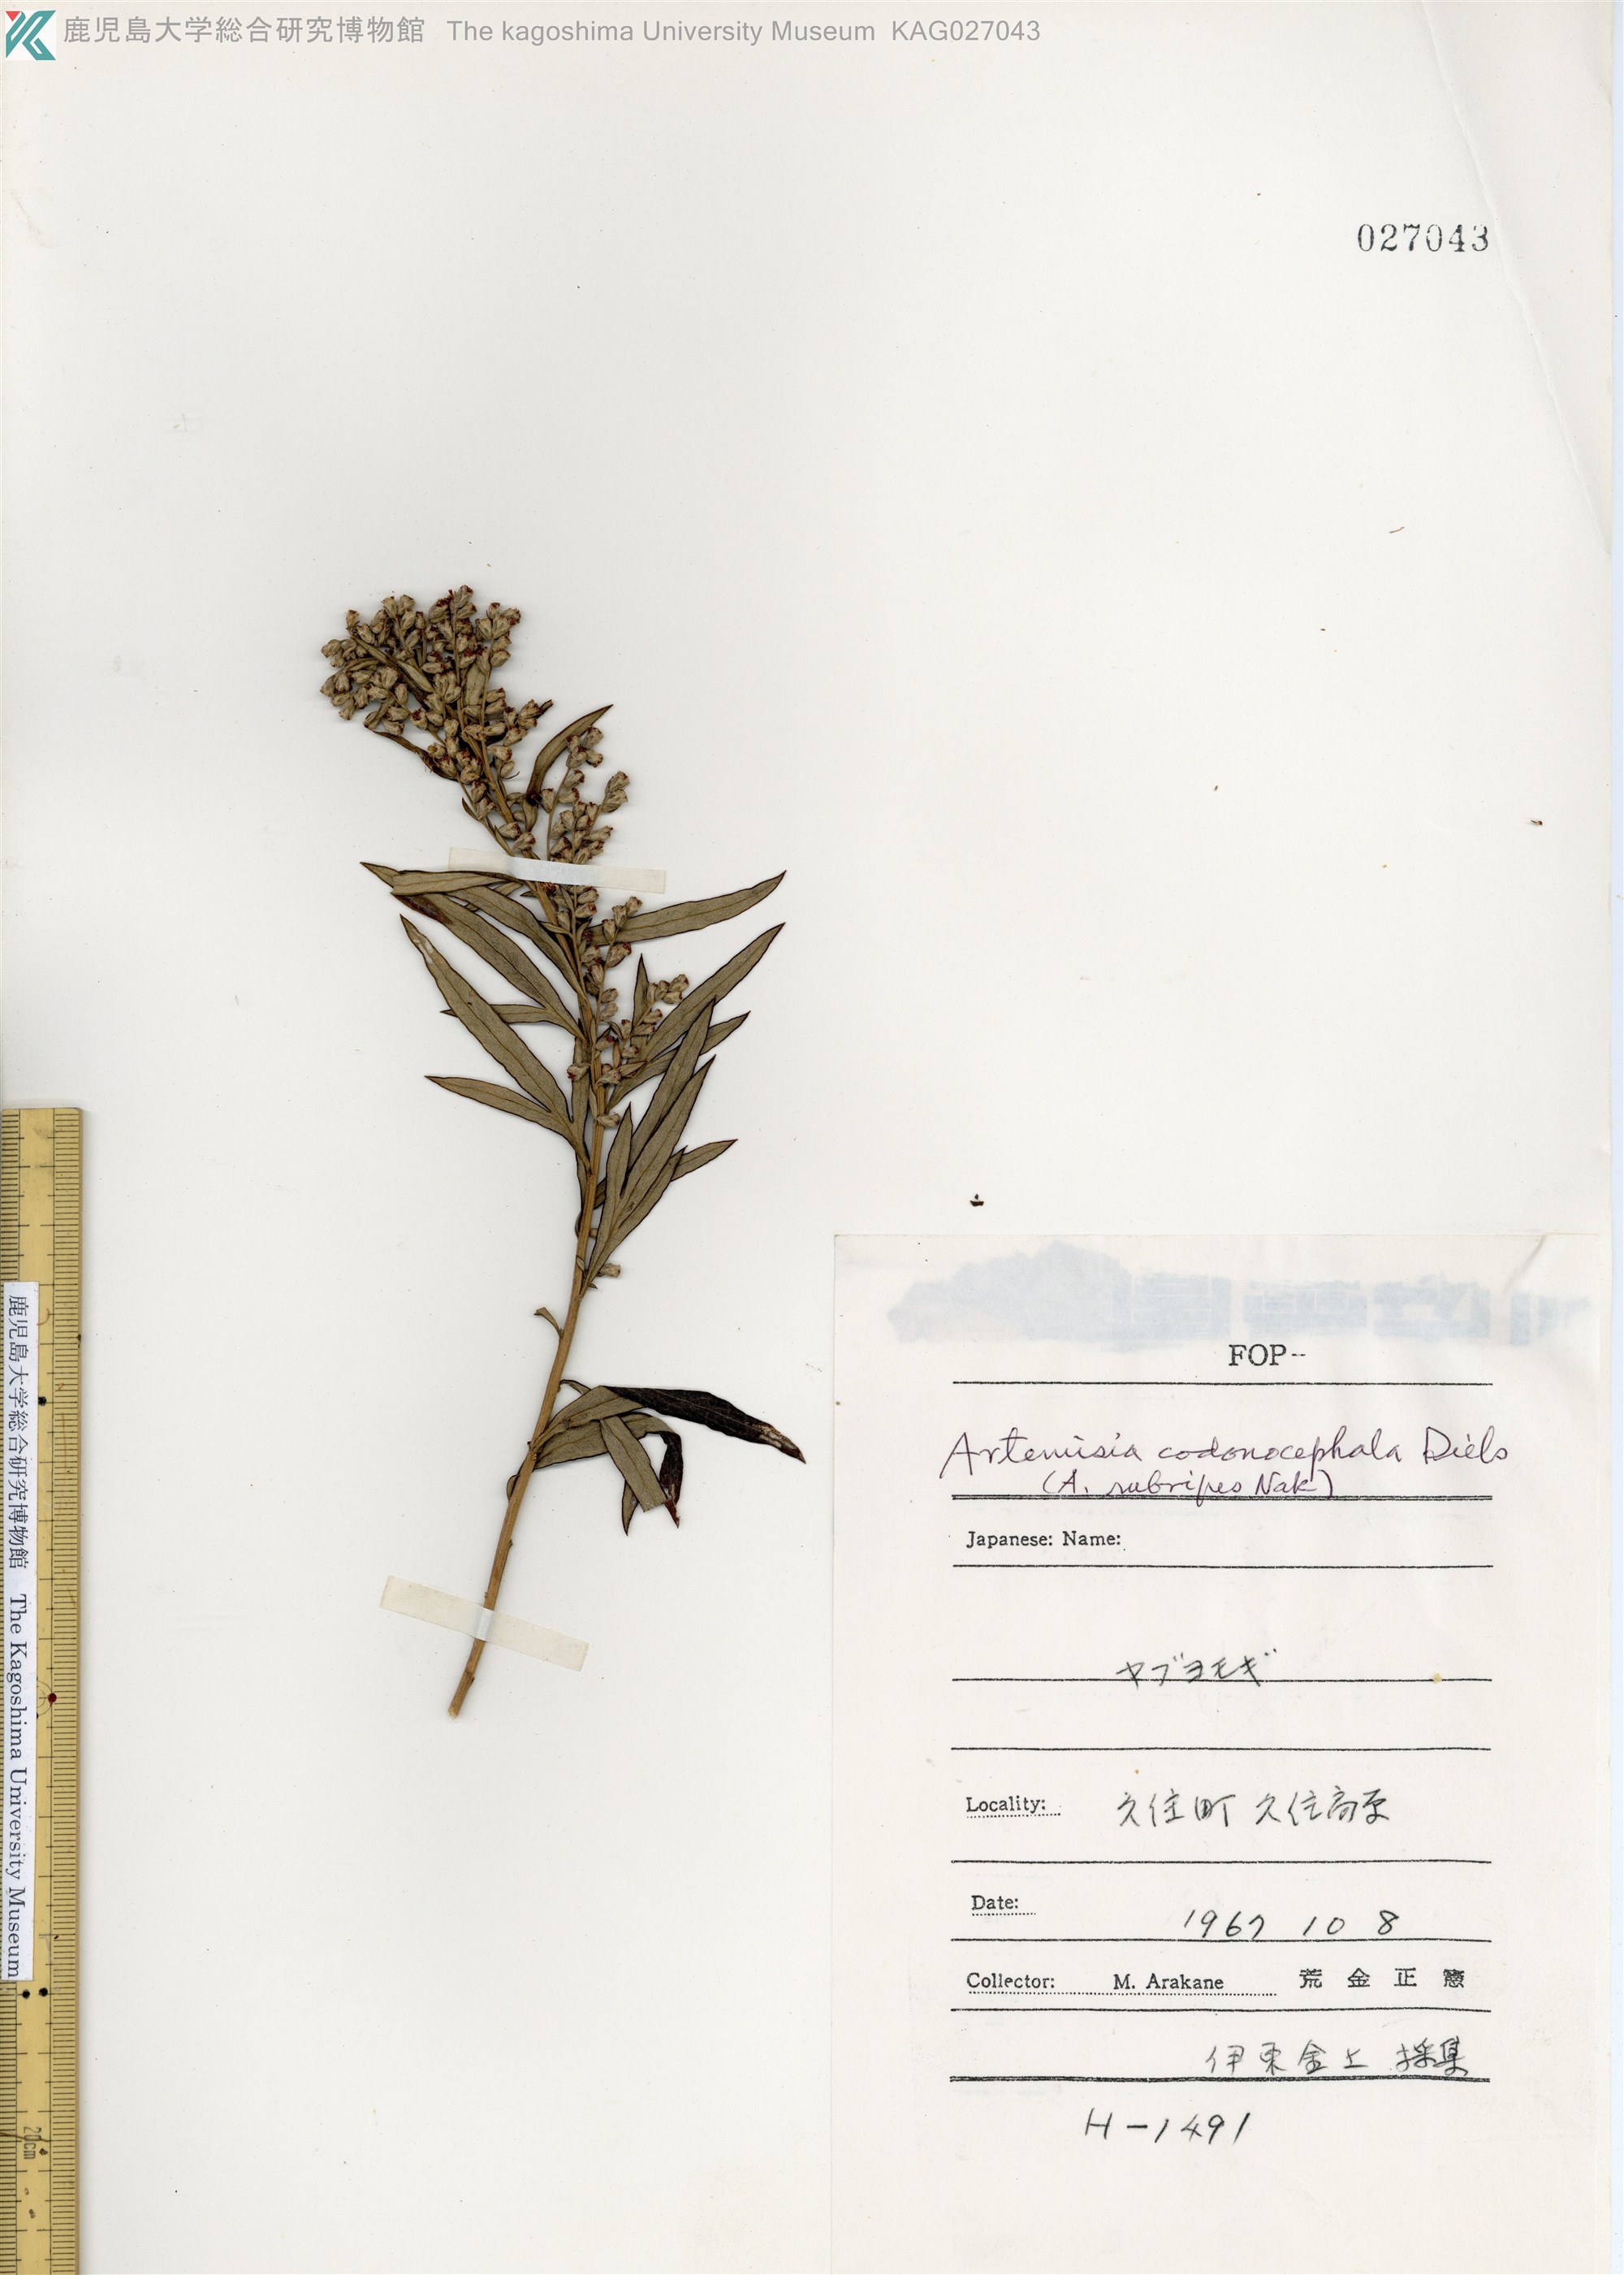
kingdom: Plantae
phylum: Tracheophyta
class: Magnoliopsida
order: Asterales
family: Asteraceae
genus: Artemisia
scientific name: Artemisia rubripes
